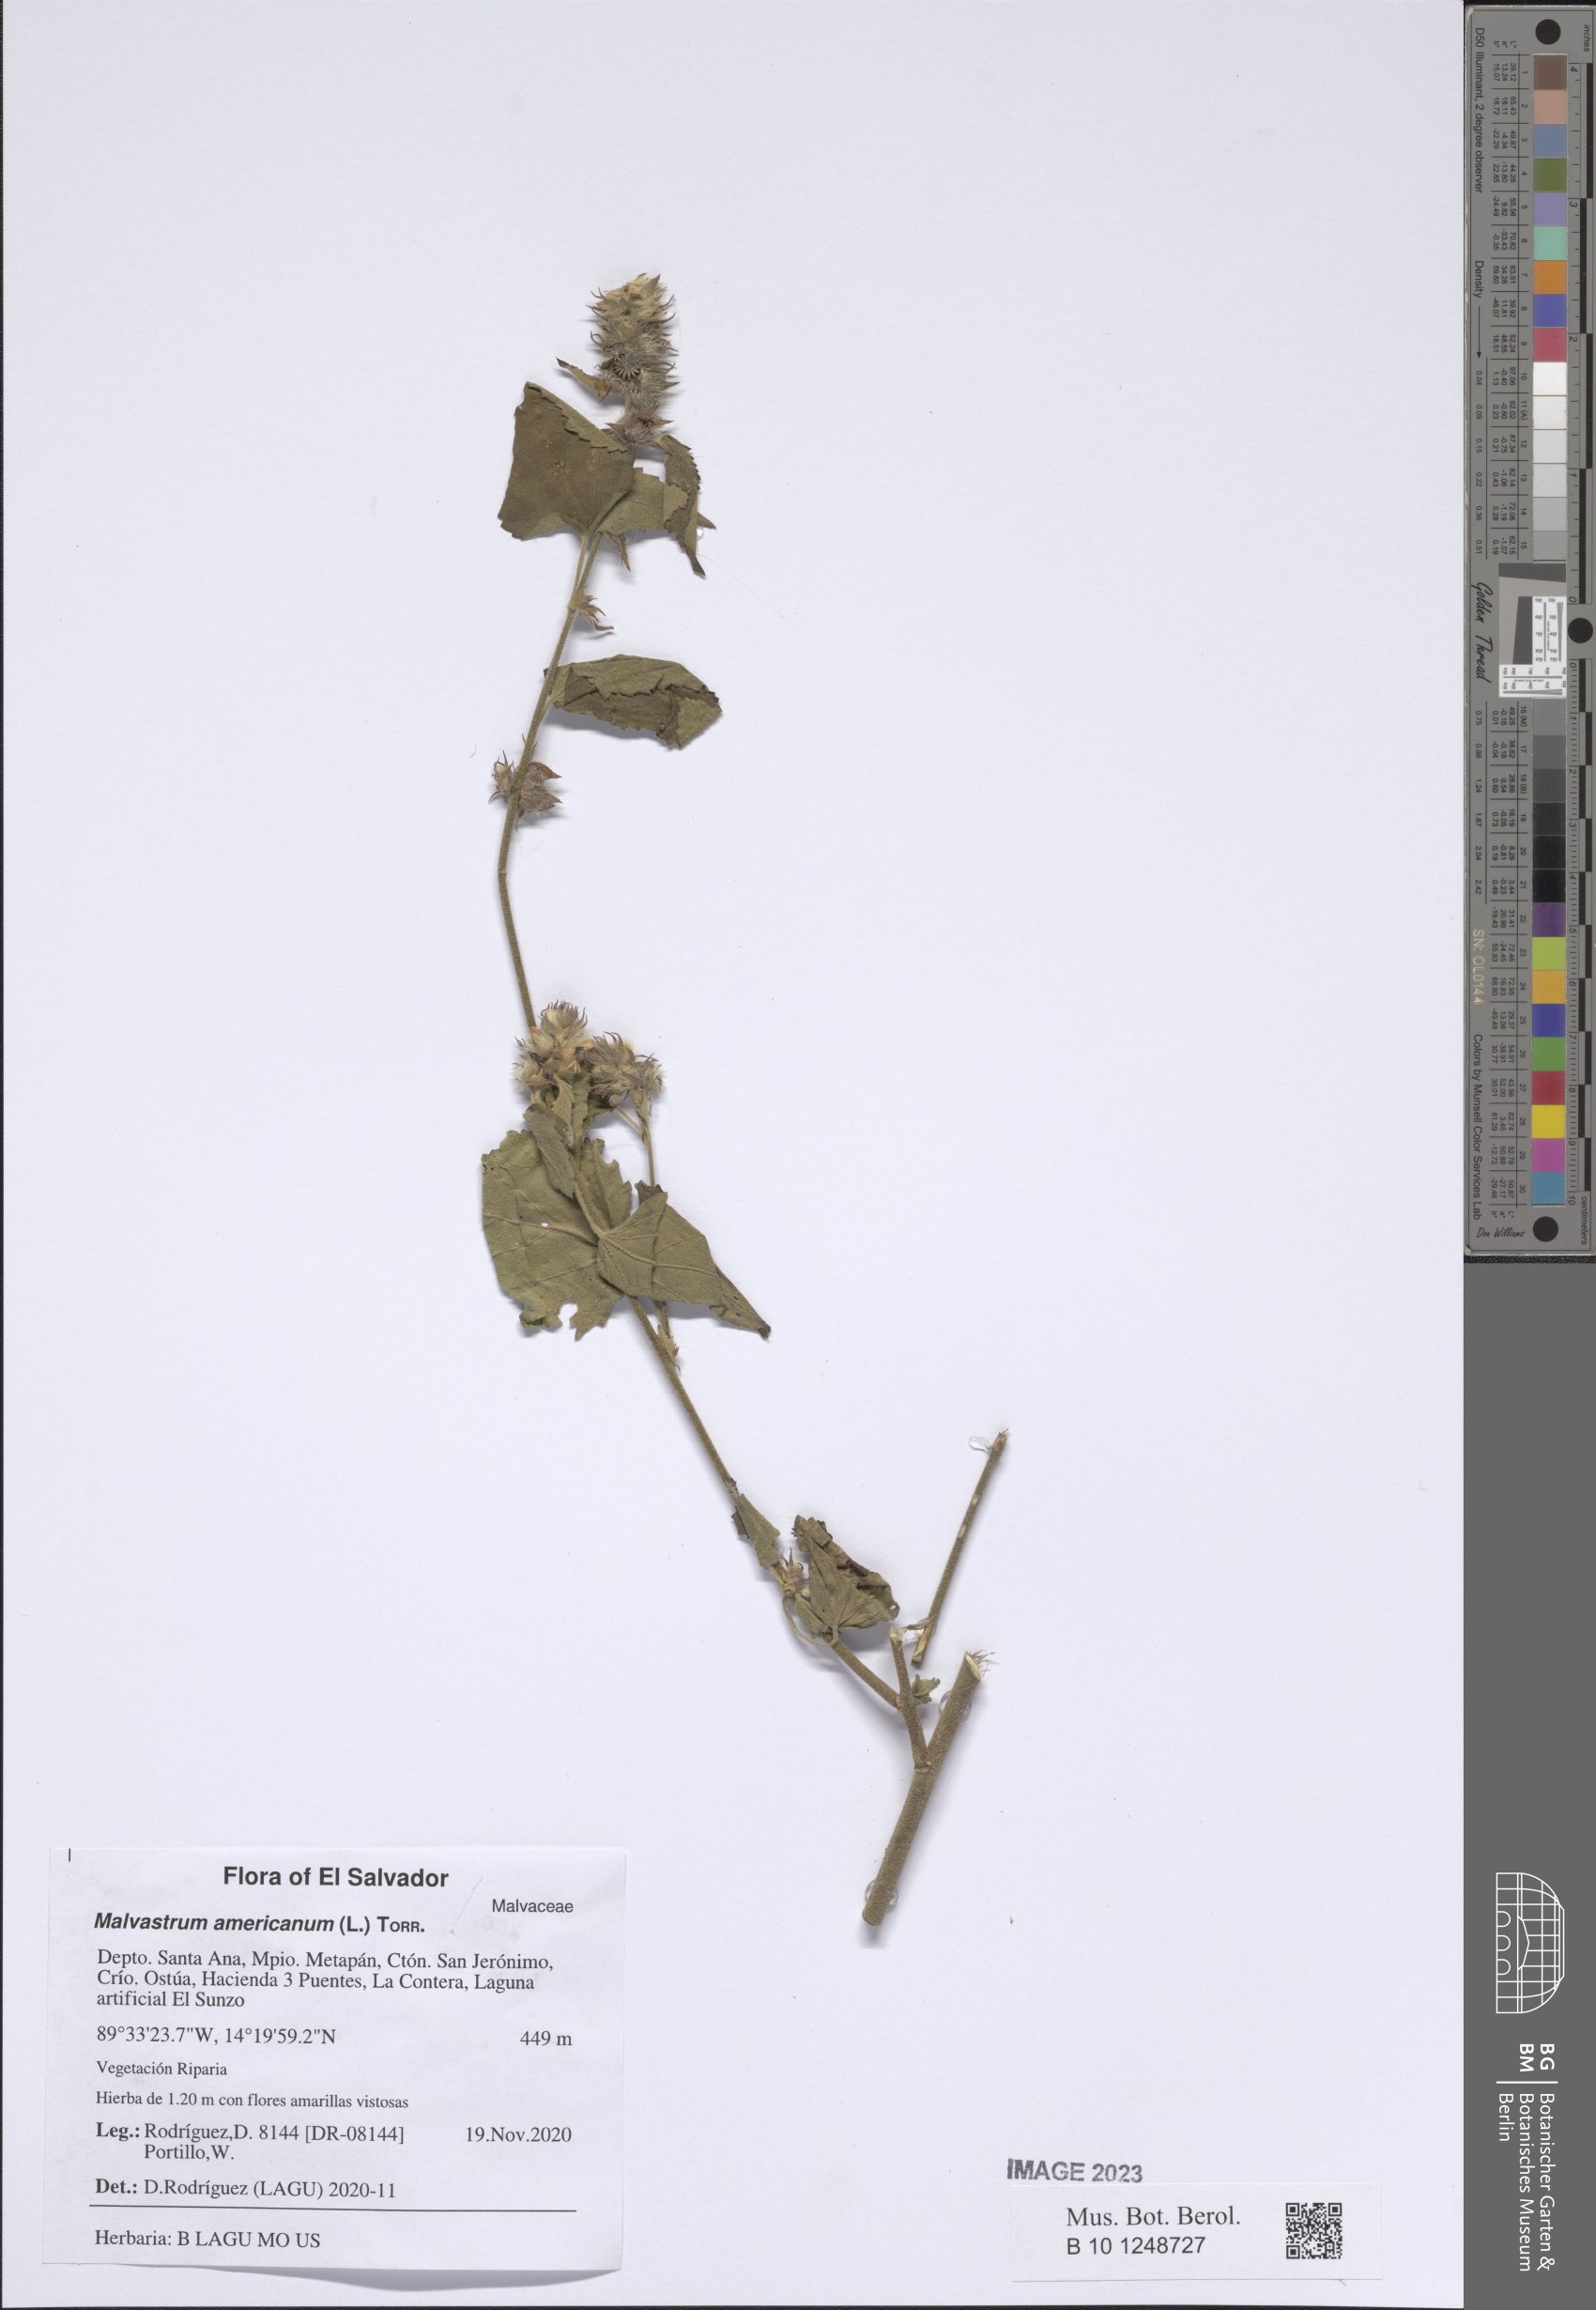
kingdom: Plantae
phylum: Tracheophyta
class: Magnoliopsida
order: Malvales
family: Malvaceae
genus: Malvastrum
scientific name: Malvastrum americanum
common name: Spiked malvastrum
